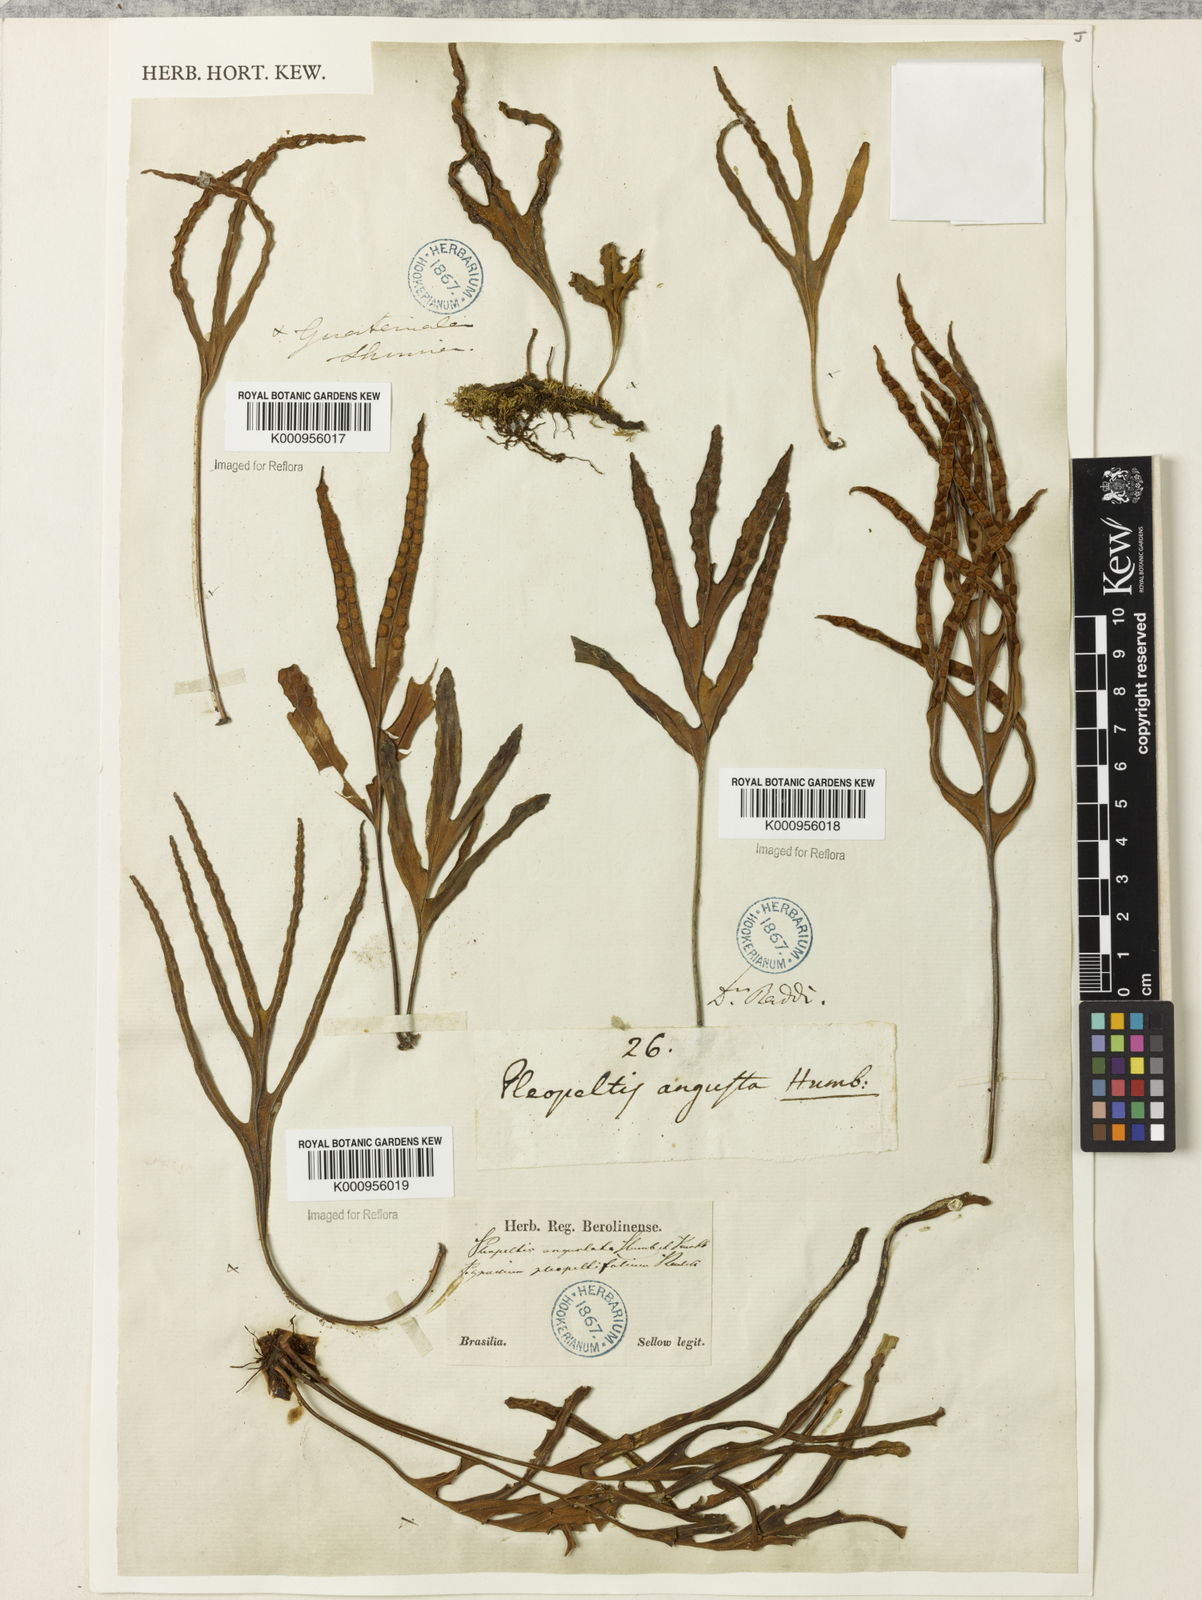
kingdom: Plantae
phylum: Tracheophyta
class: Polypodiopsida
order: Polypodiales
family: Polypodiaceae
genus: Pleopeltis
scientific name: Pleopeltis angusta
